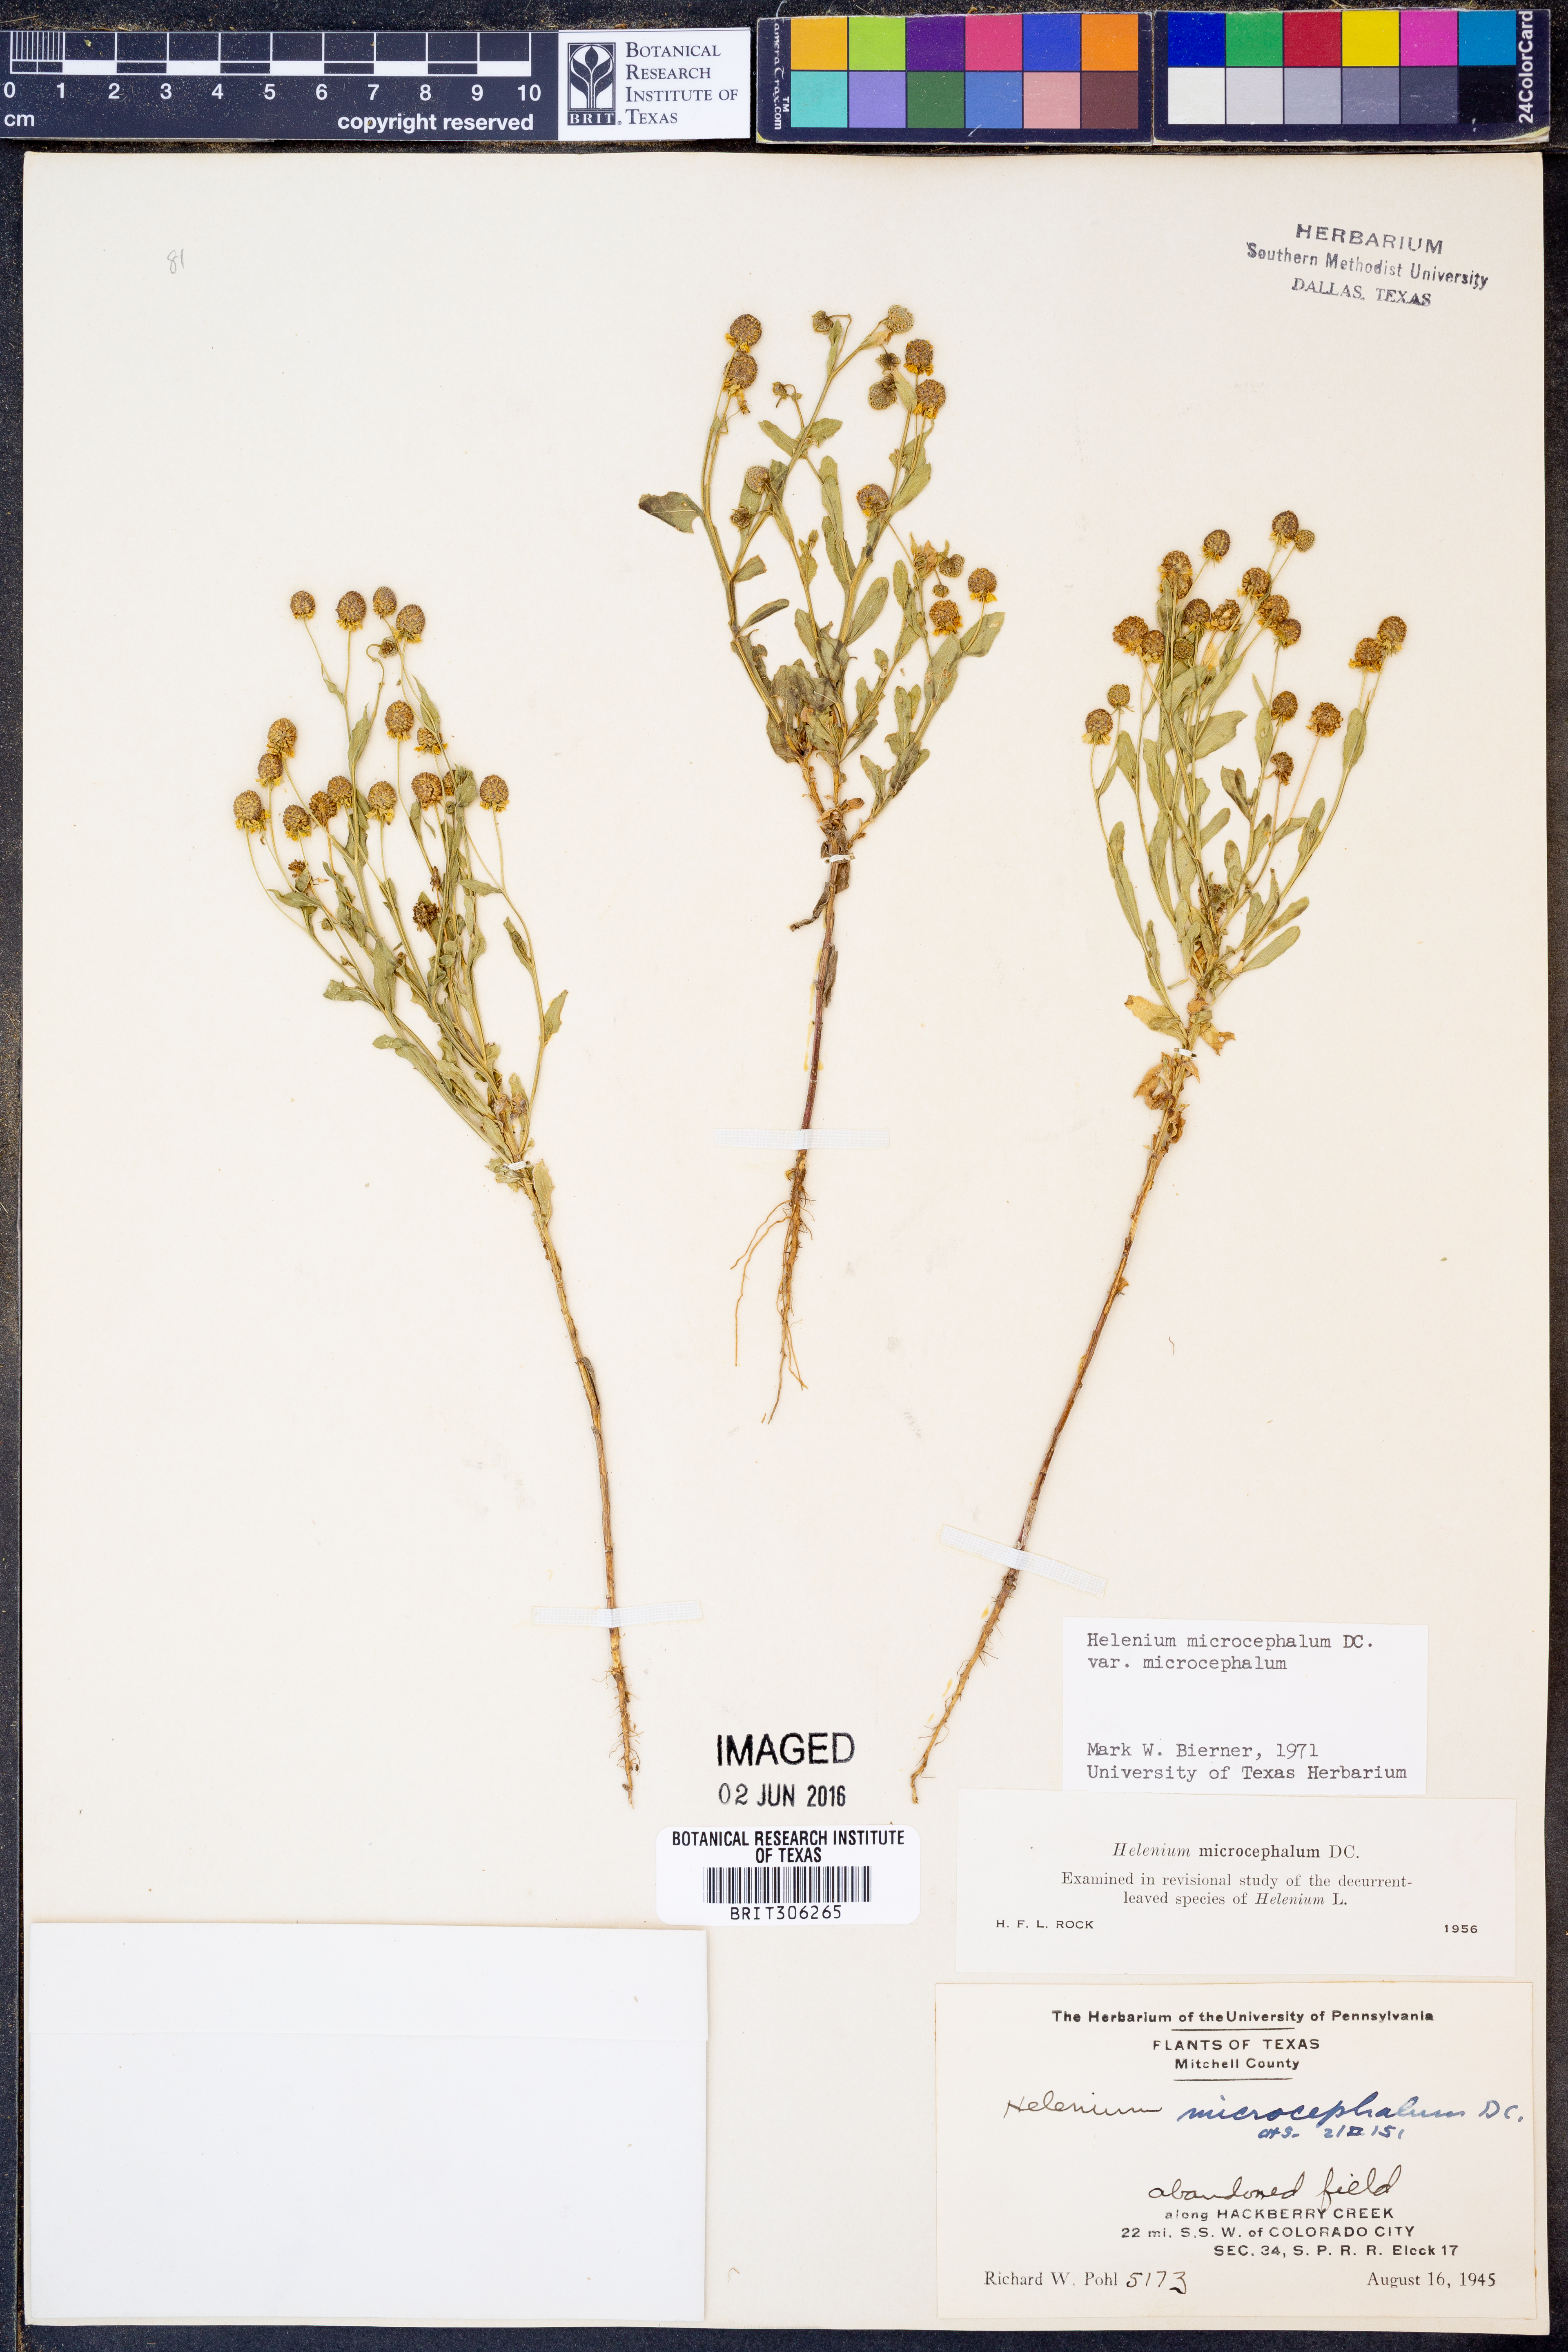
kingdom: Plantae
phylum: Tracheophyta
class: Magnoliopsida
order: Asterales
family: Asteraceae
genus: Helenium
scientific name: Helenium microcephalum
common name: Smallhead sneezeweed
